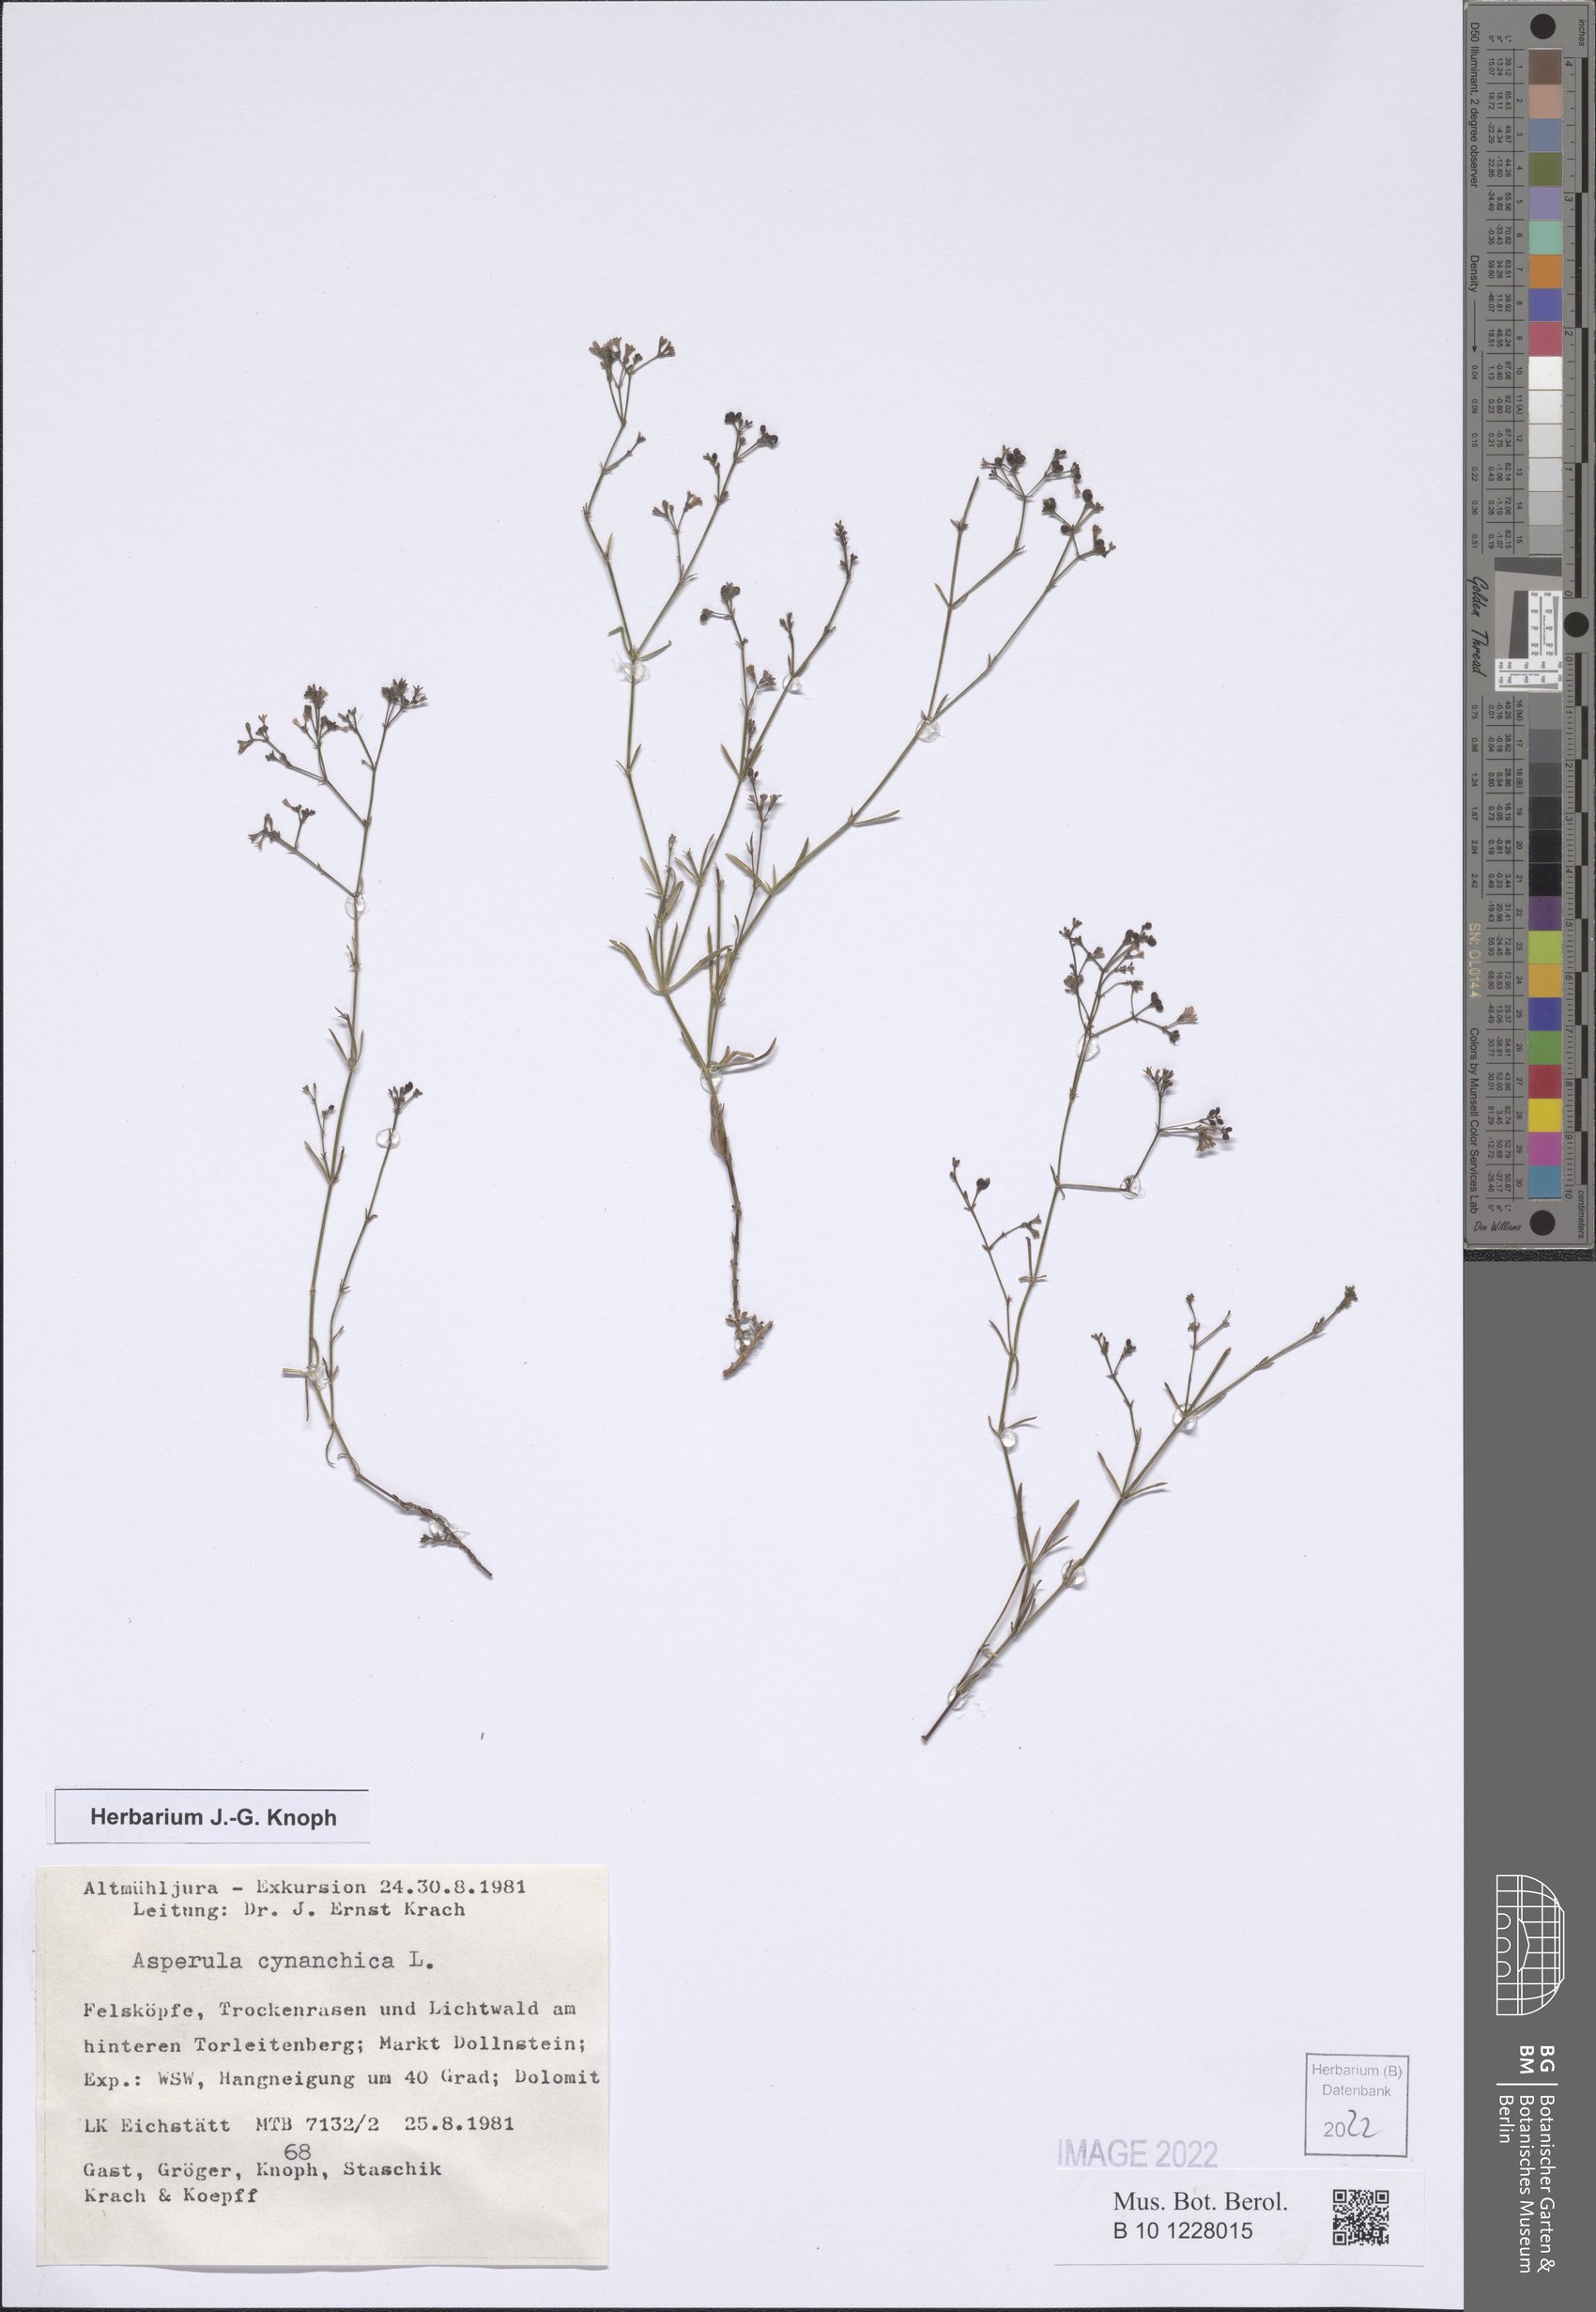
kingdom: Plantae
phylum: Tracheophyta
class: Magnoliopsida
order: Gentianales
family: Rubiaceae
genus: Cynanchica
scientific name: Cynanchica pyrenaica
